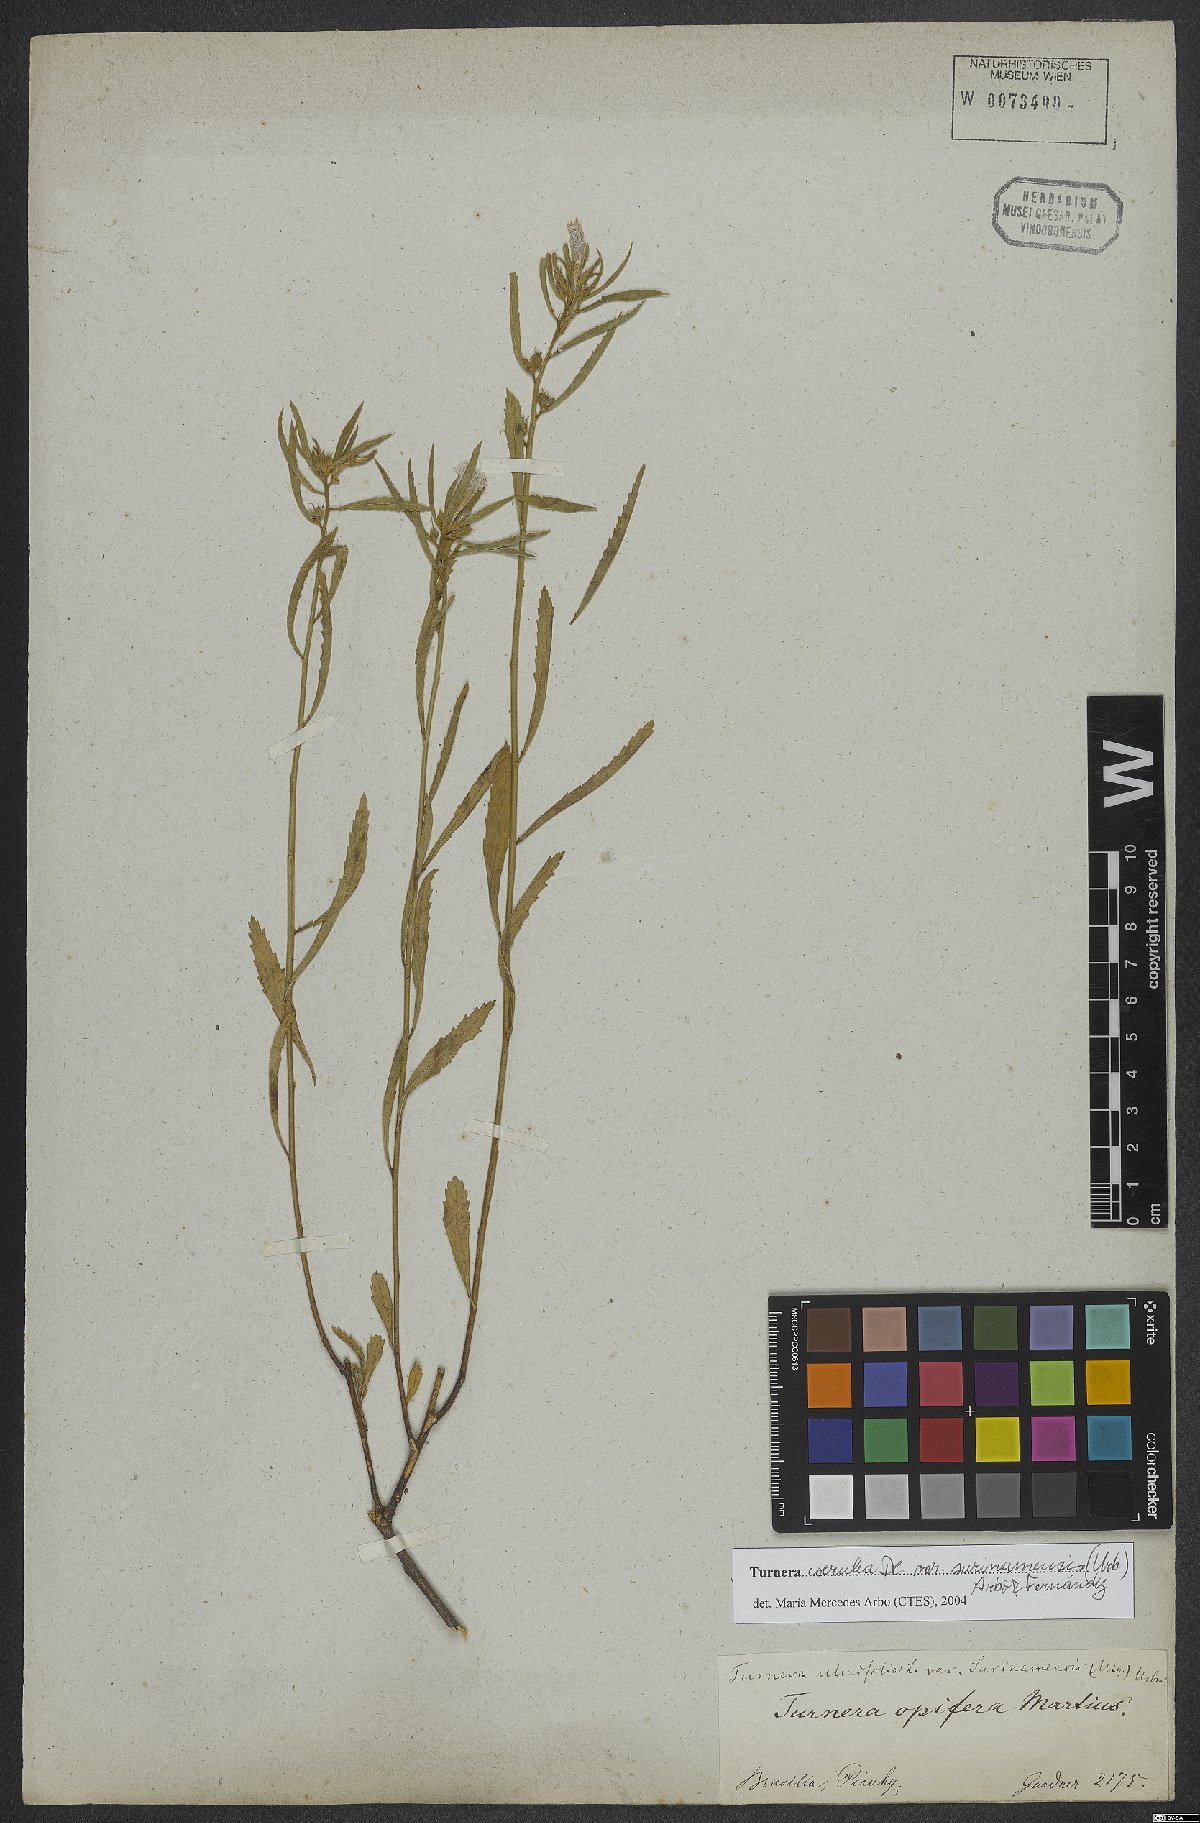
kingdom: Plantae
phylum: Tracheophyta
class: Magnoliopsida
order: Malpighiales
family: Turneraceae
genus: Turnera
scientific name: Turnera coerulea
